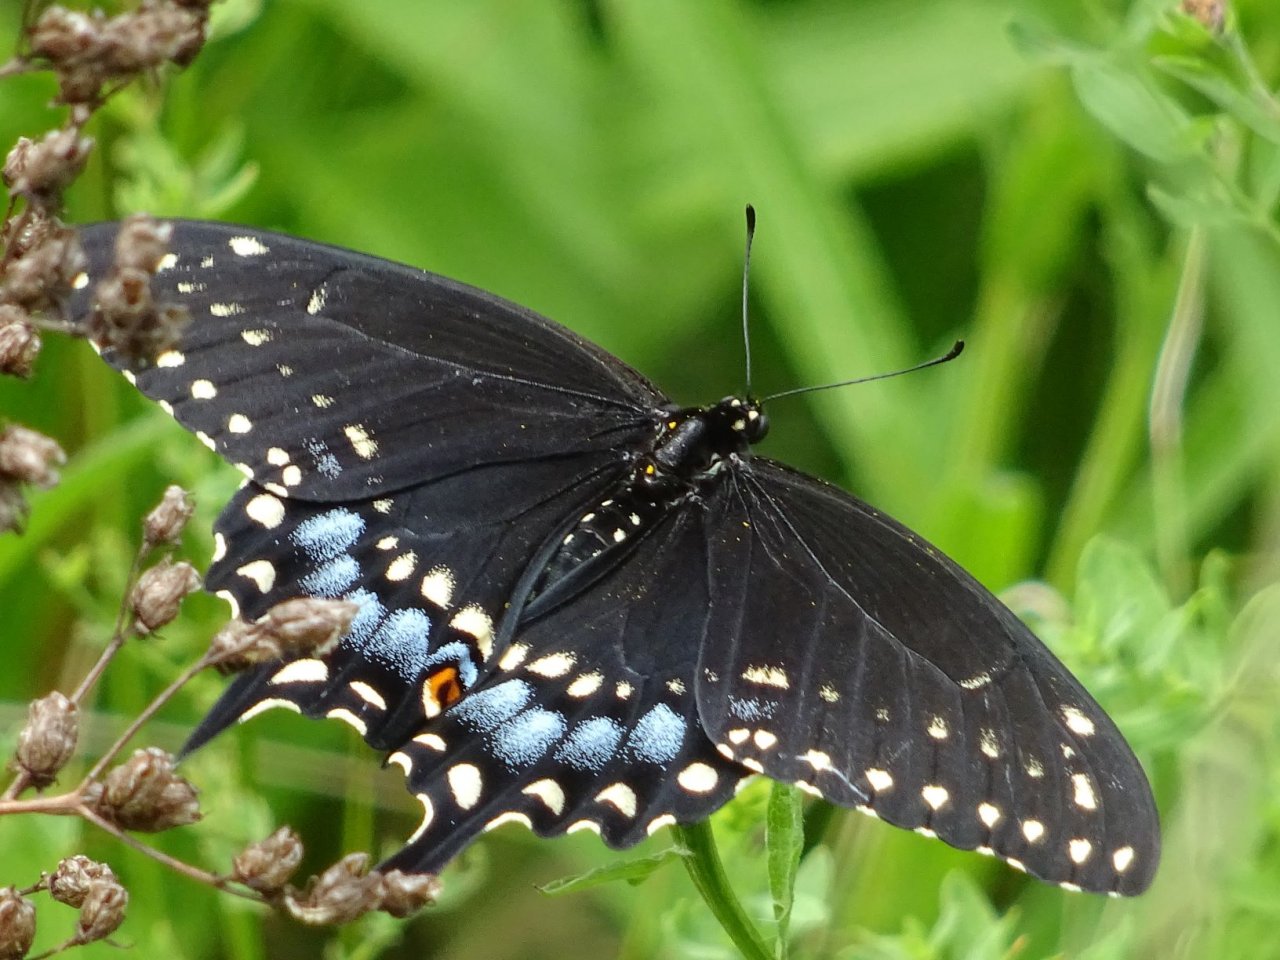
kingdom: Animalia
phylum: Arthropoda
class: Insecta
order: Lepidoptera
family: Papilionidae
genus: Papilio
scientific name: Papilio polyxenes
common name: Black Swallowtail
